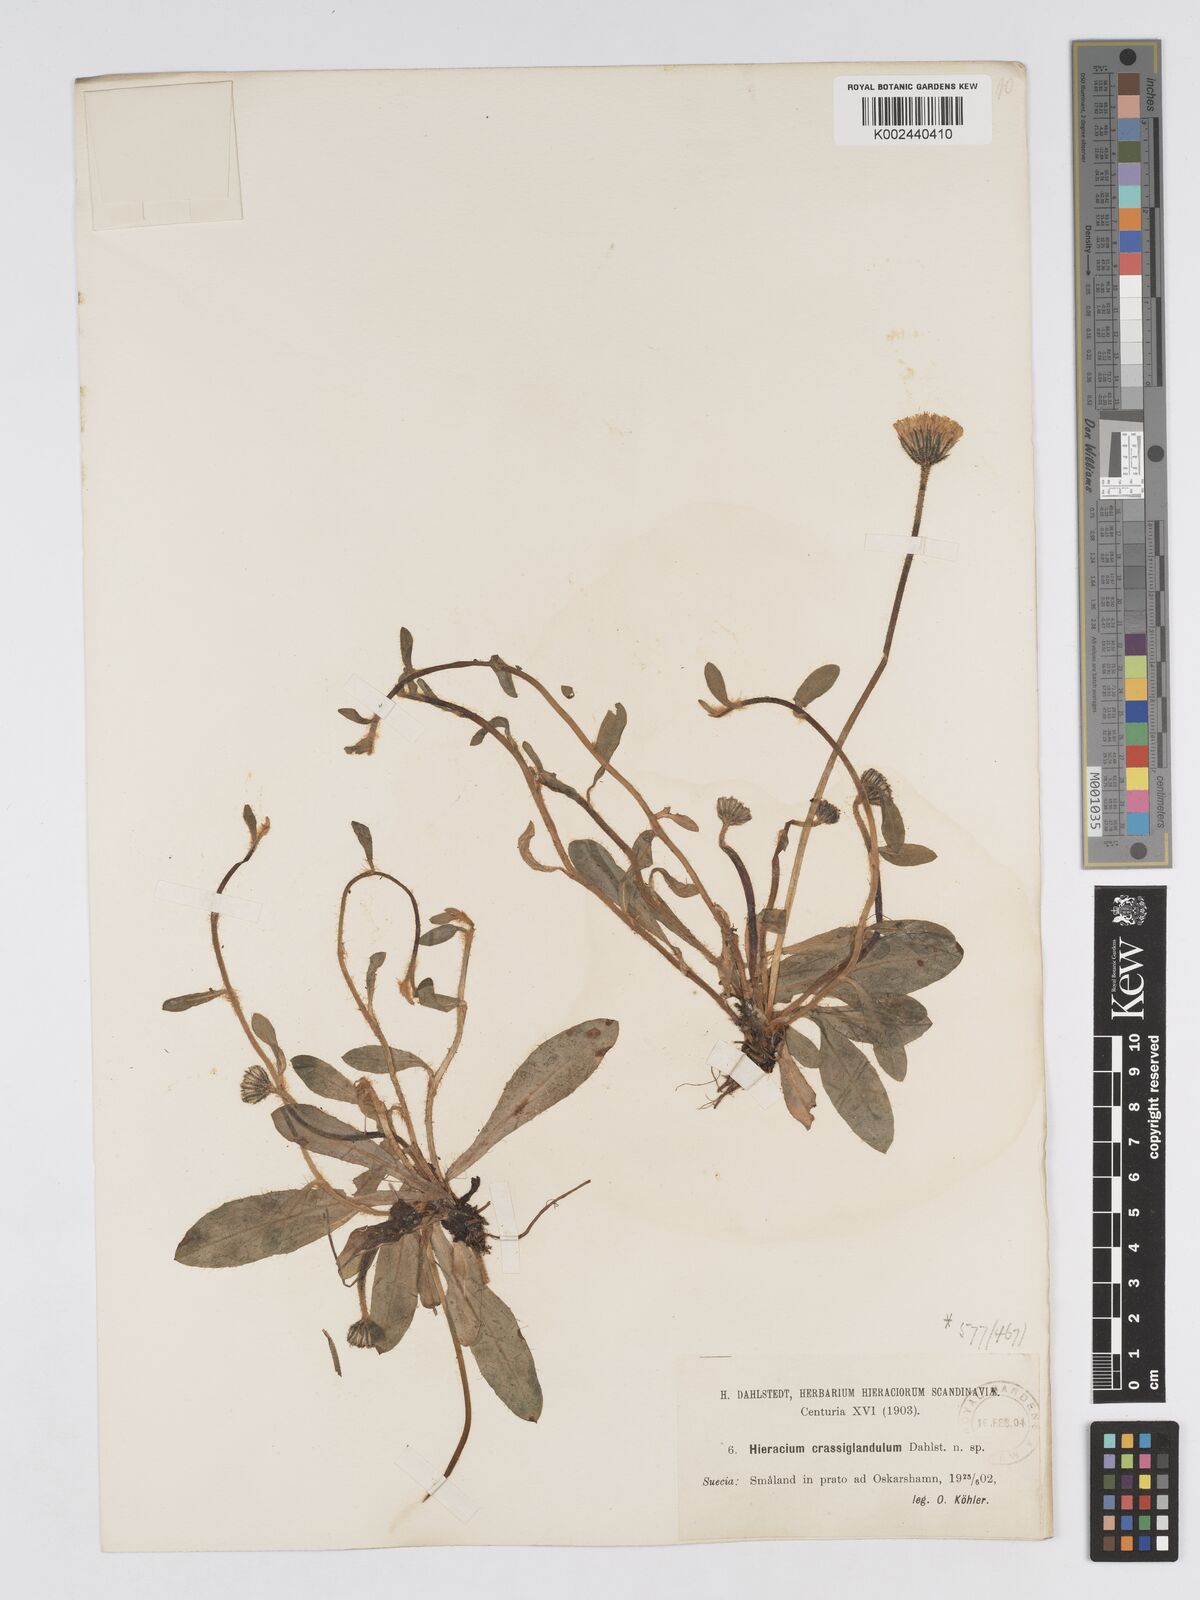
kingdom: Plantae
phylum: Tracheophyta
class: Magnoliopsida
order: Asterales
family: Asteraceae
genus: Hieracium
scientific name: Hieracium crassiglandulosum
